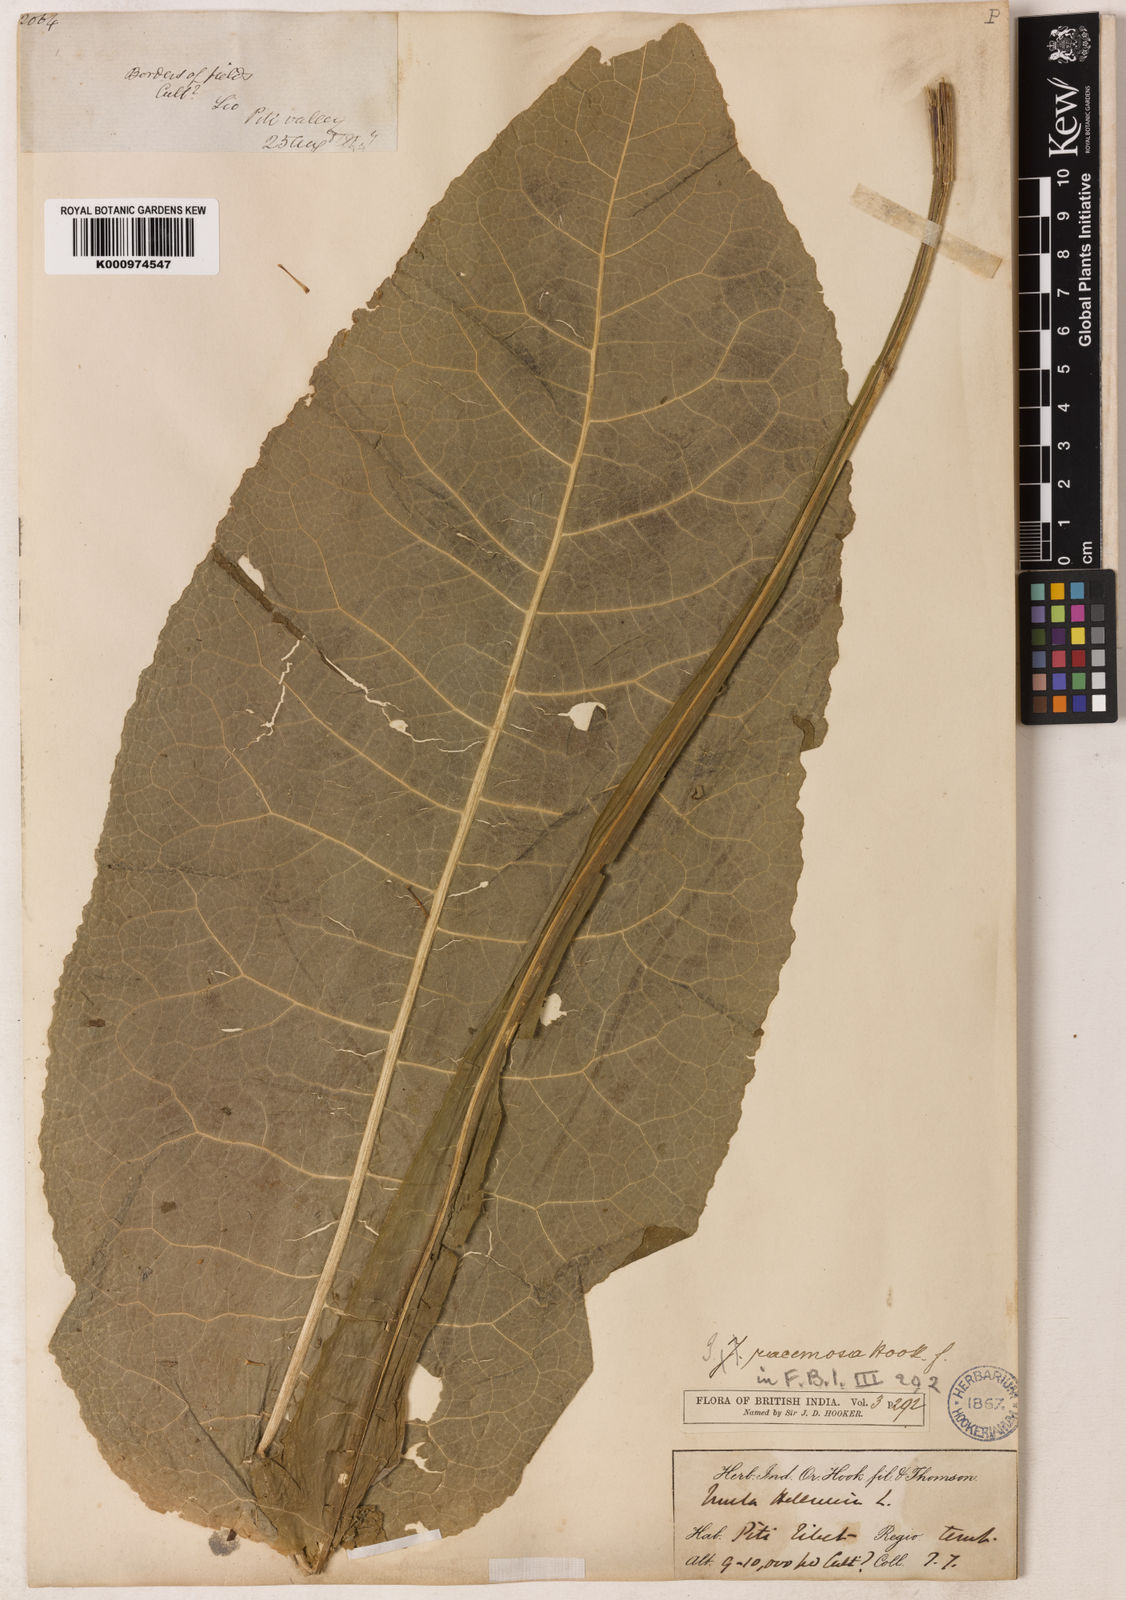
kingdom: Plantae
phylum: Tracheophyta
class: Magnoliopsida
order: Asterales
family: Asteraceae
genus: Inula
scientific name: Inula racemosa
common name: Indian elecampane
